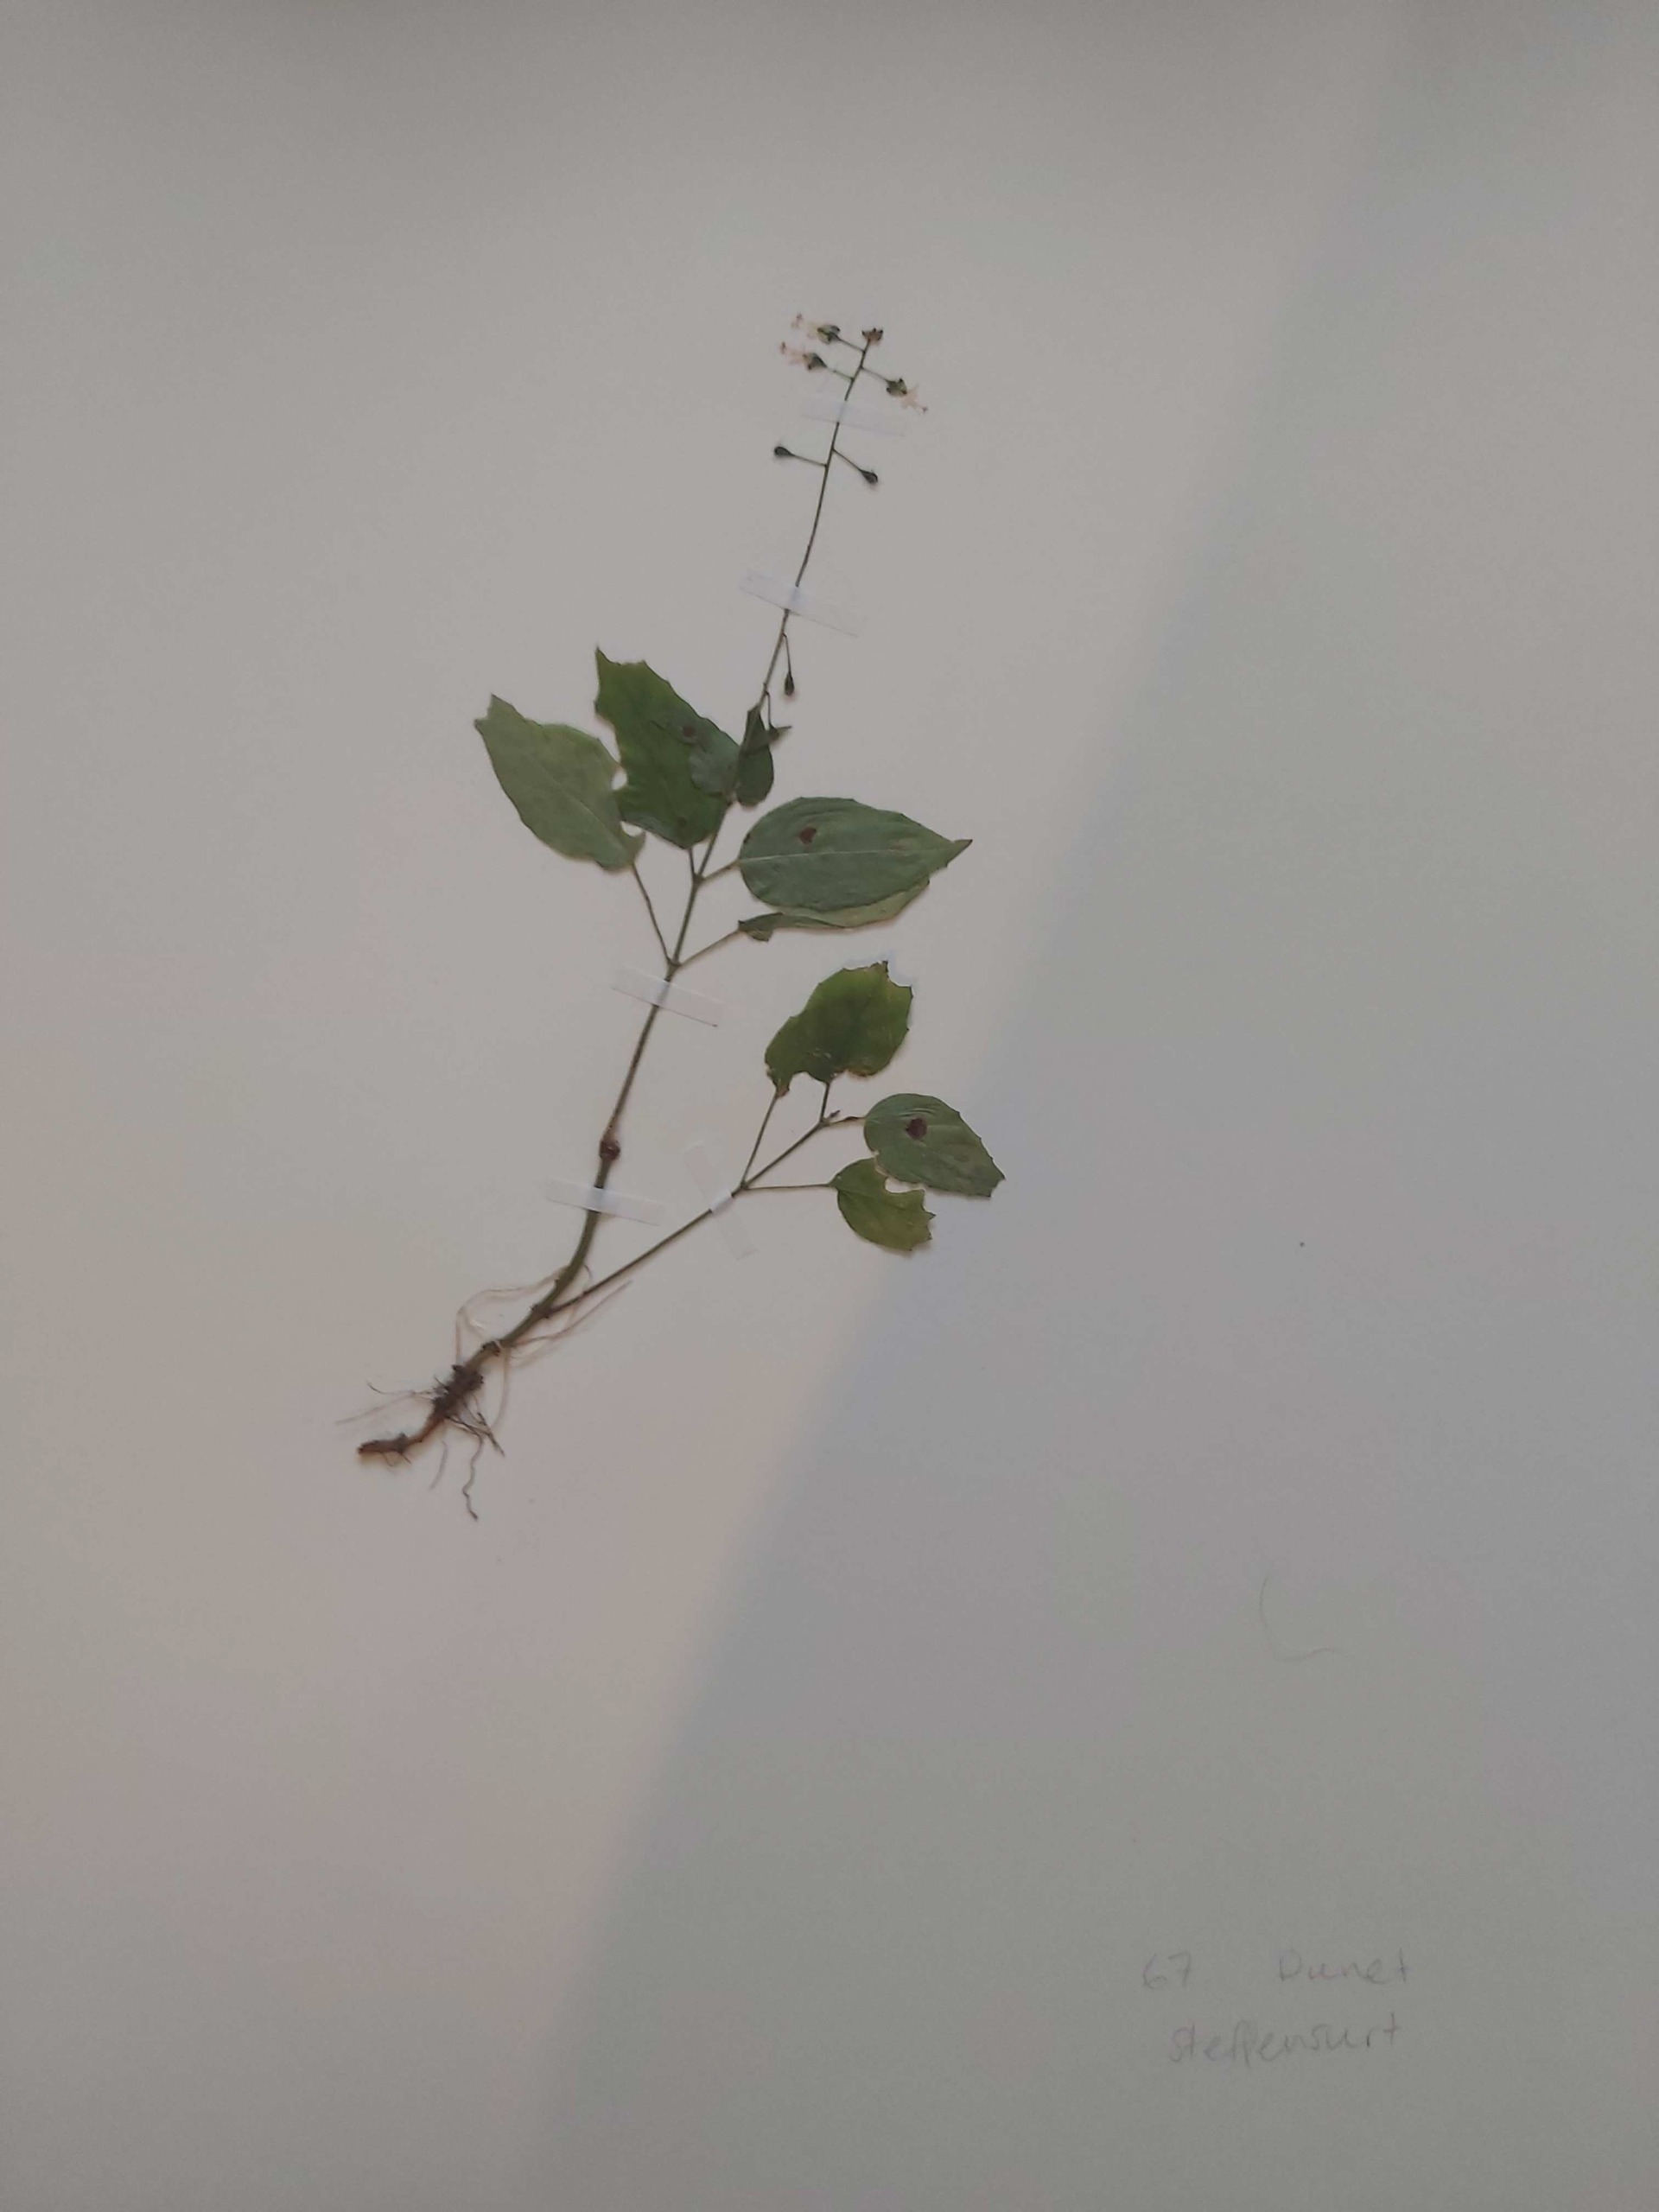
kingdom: Plantae
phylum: Tracheophyta
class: Magnoliopsida
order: Myrtales
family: Onagraceae
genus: Circaea
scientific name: Circaea lutetiana
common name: Dunet steffensurt
